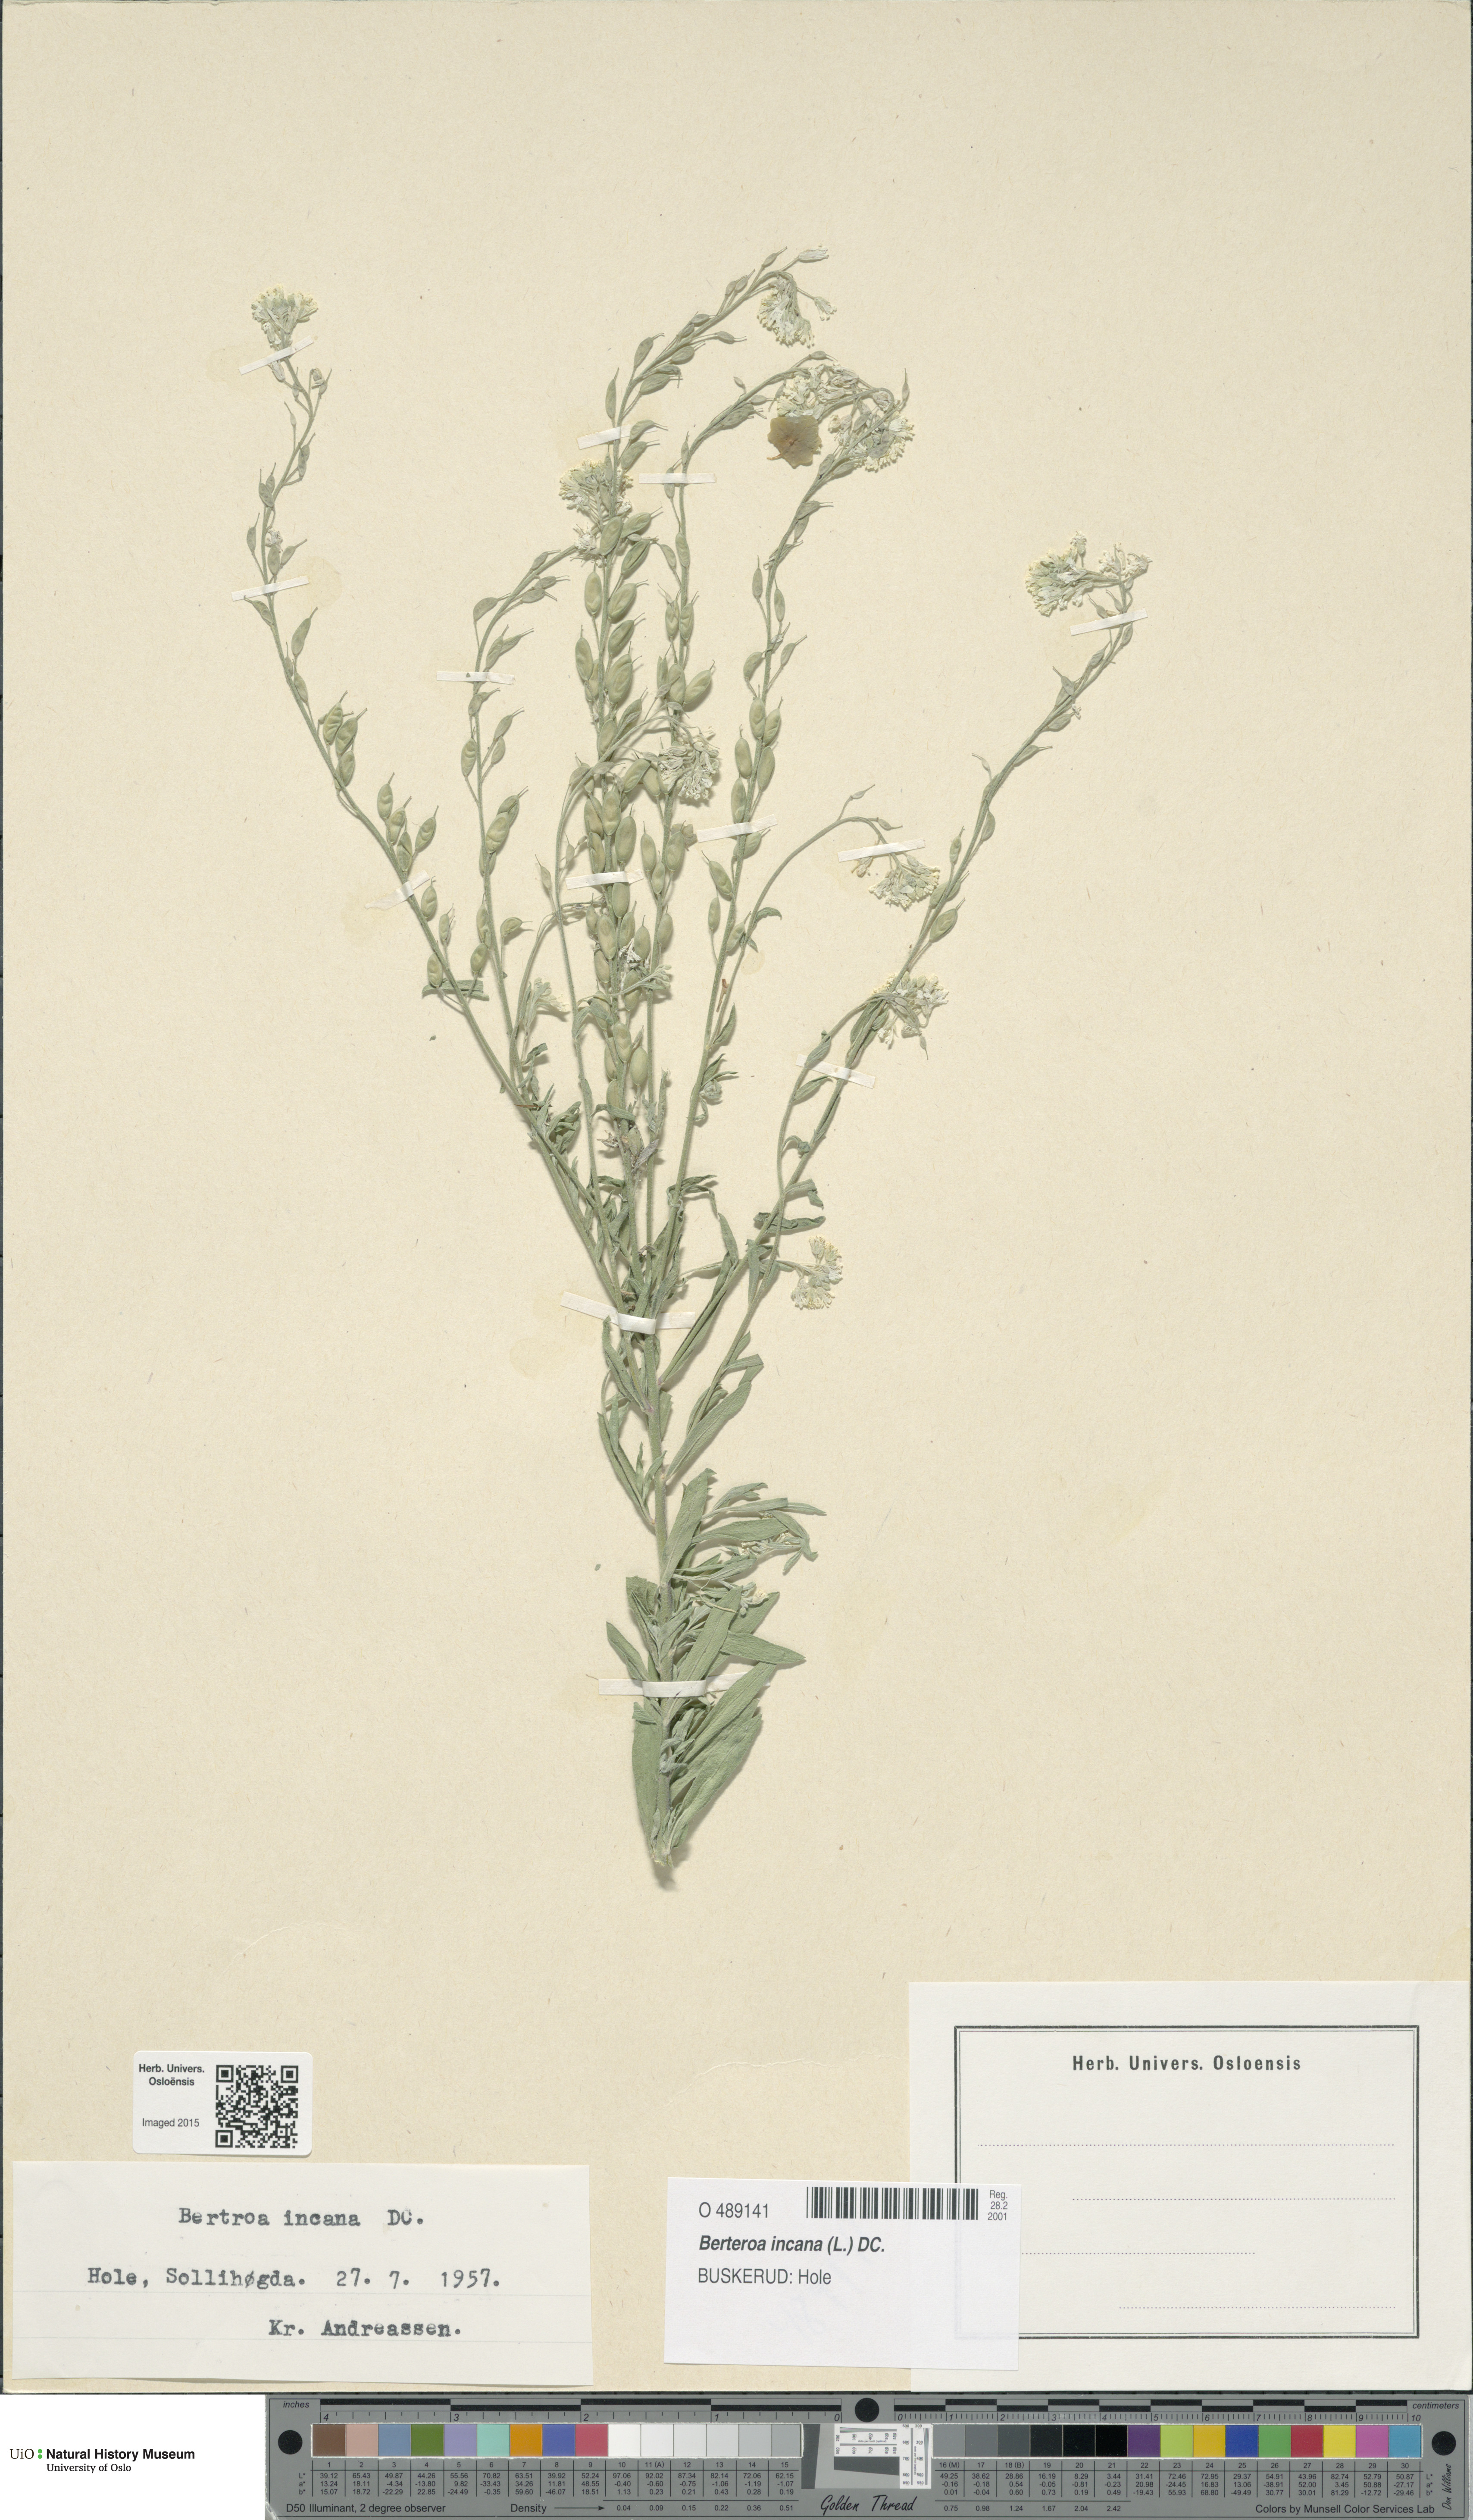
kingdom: Plantae
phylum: Tracheophyta
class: Magnoliopsida
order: Brassicales
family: Brassicaceae
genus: Berteroa
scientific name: Berteroa incana
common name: Hoary alison
